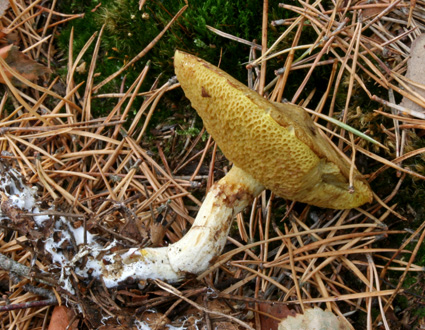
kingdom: Fungi
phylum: Basidiomycota
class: Agaricomycetes
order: Boletales
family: Suillaceae
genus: Suillus
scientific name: Suillus flavidus
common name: mose-slimrørhat
